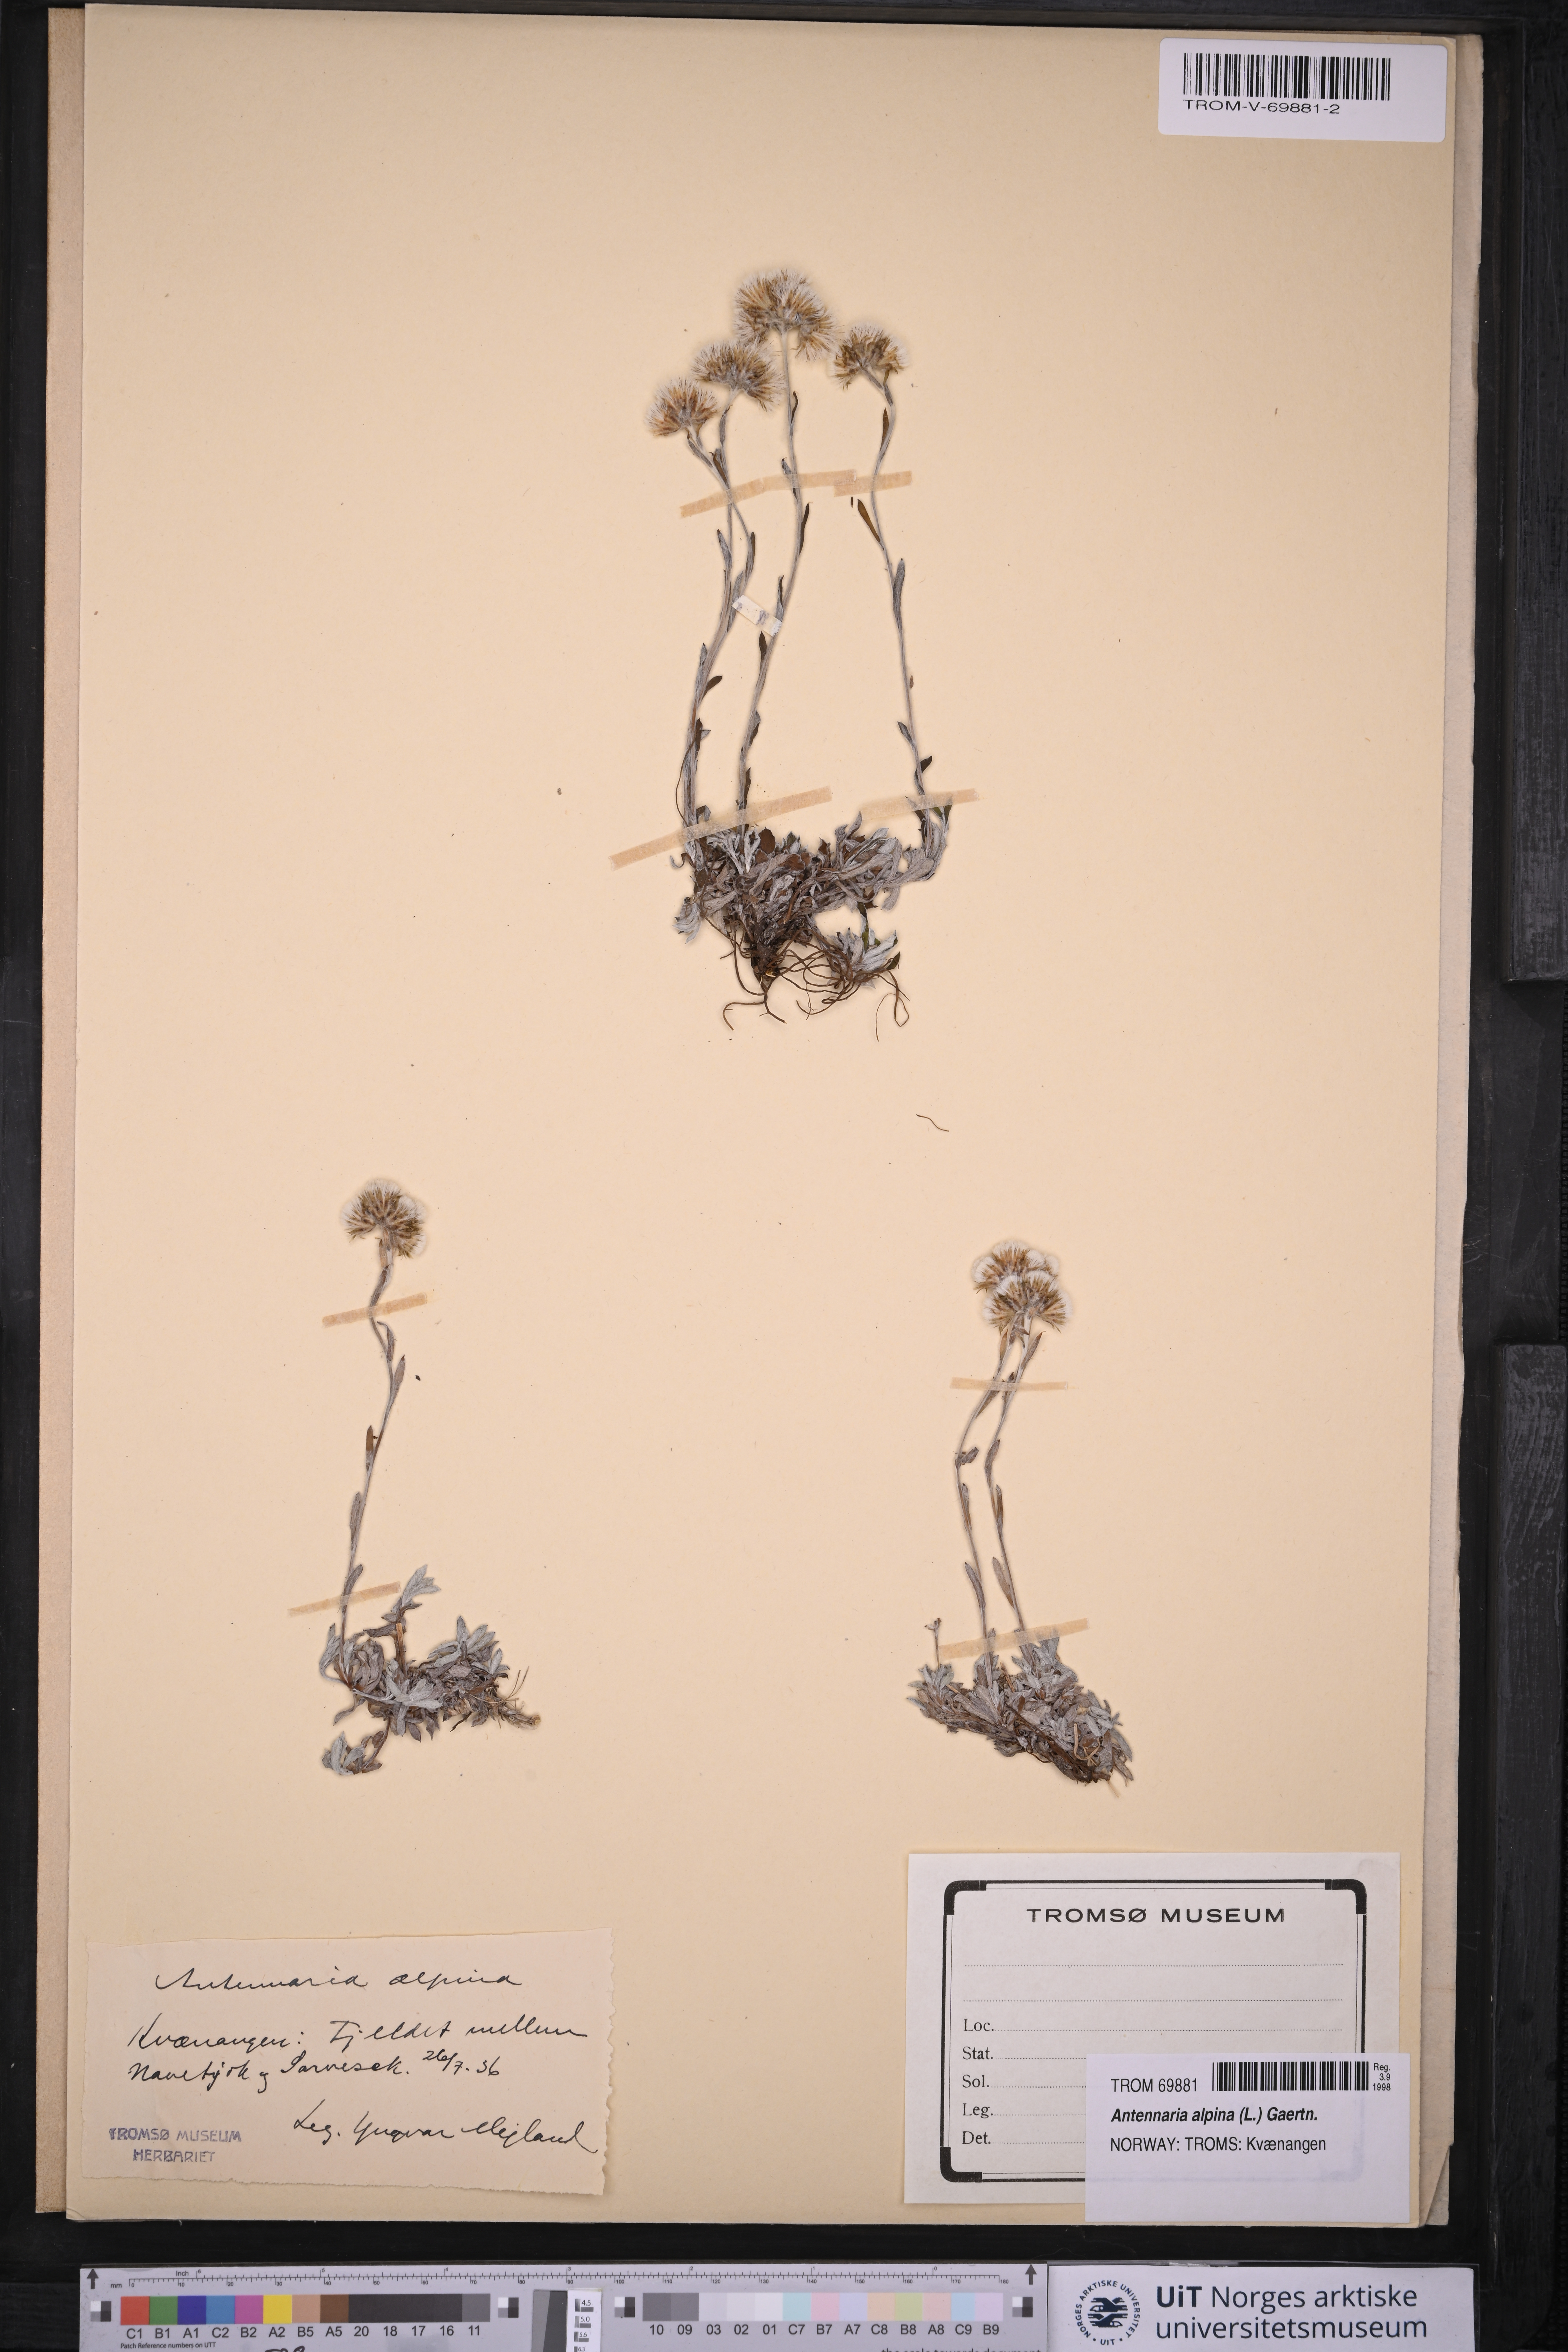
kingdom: Plantae
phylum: Tracheophyta
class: Magnoliopsida
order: Asterales
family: Asteraceae
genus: Antennaria
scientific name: Antennaria alpina
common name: Alpine pussytoes
